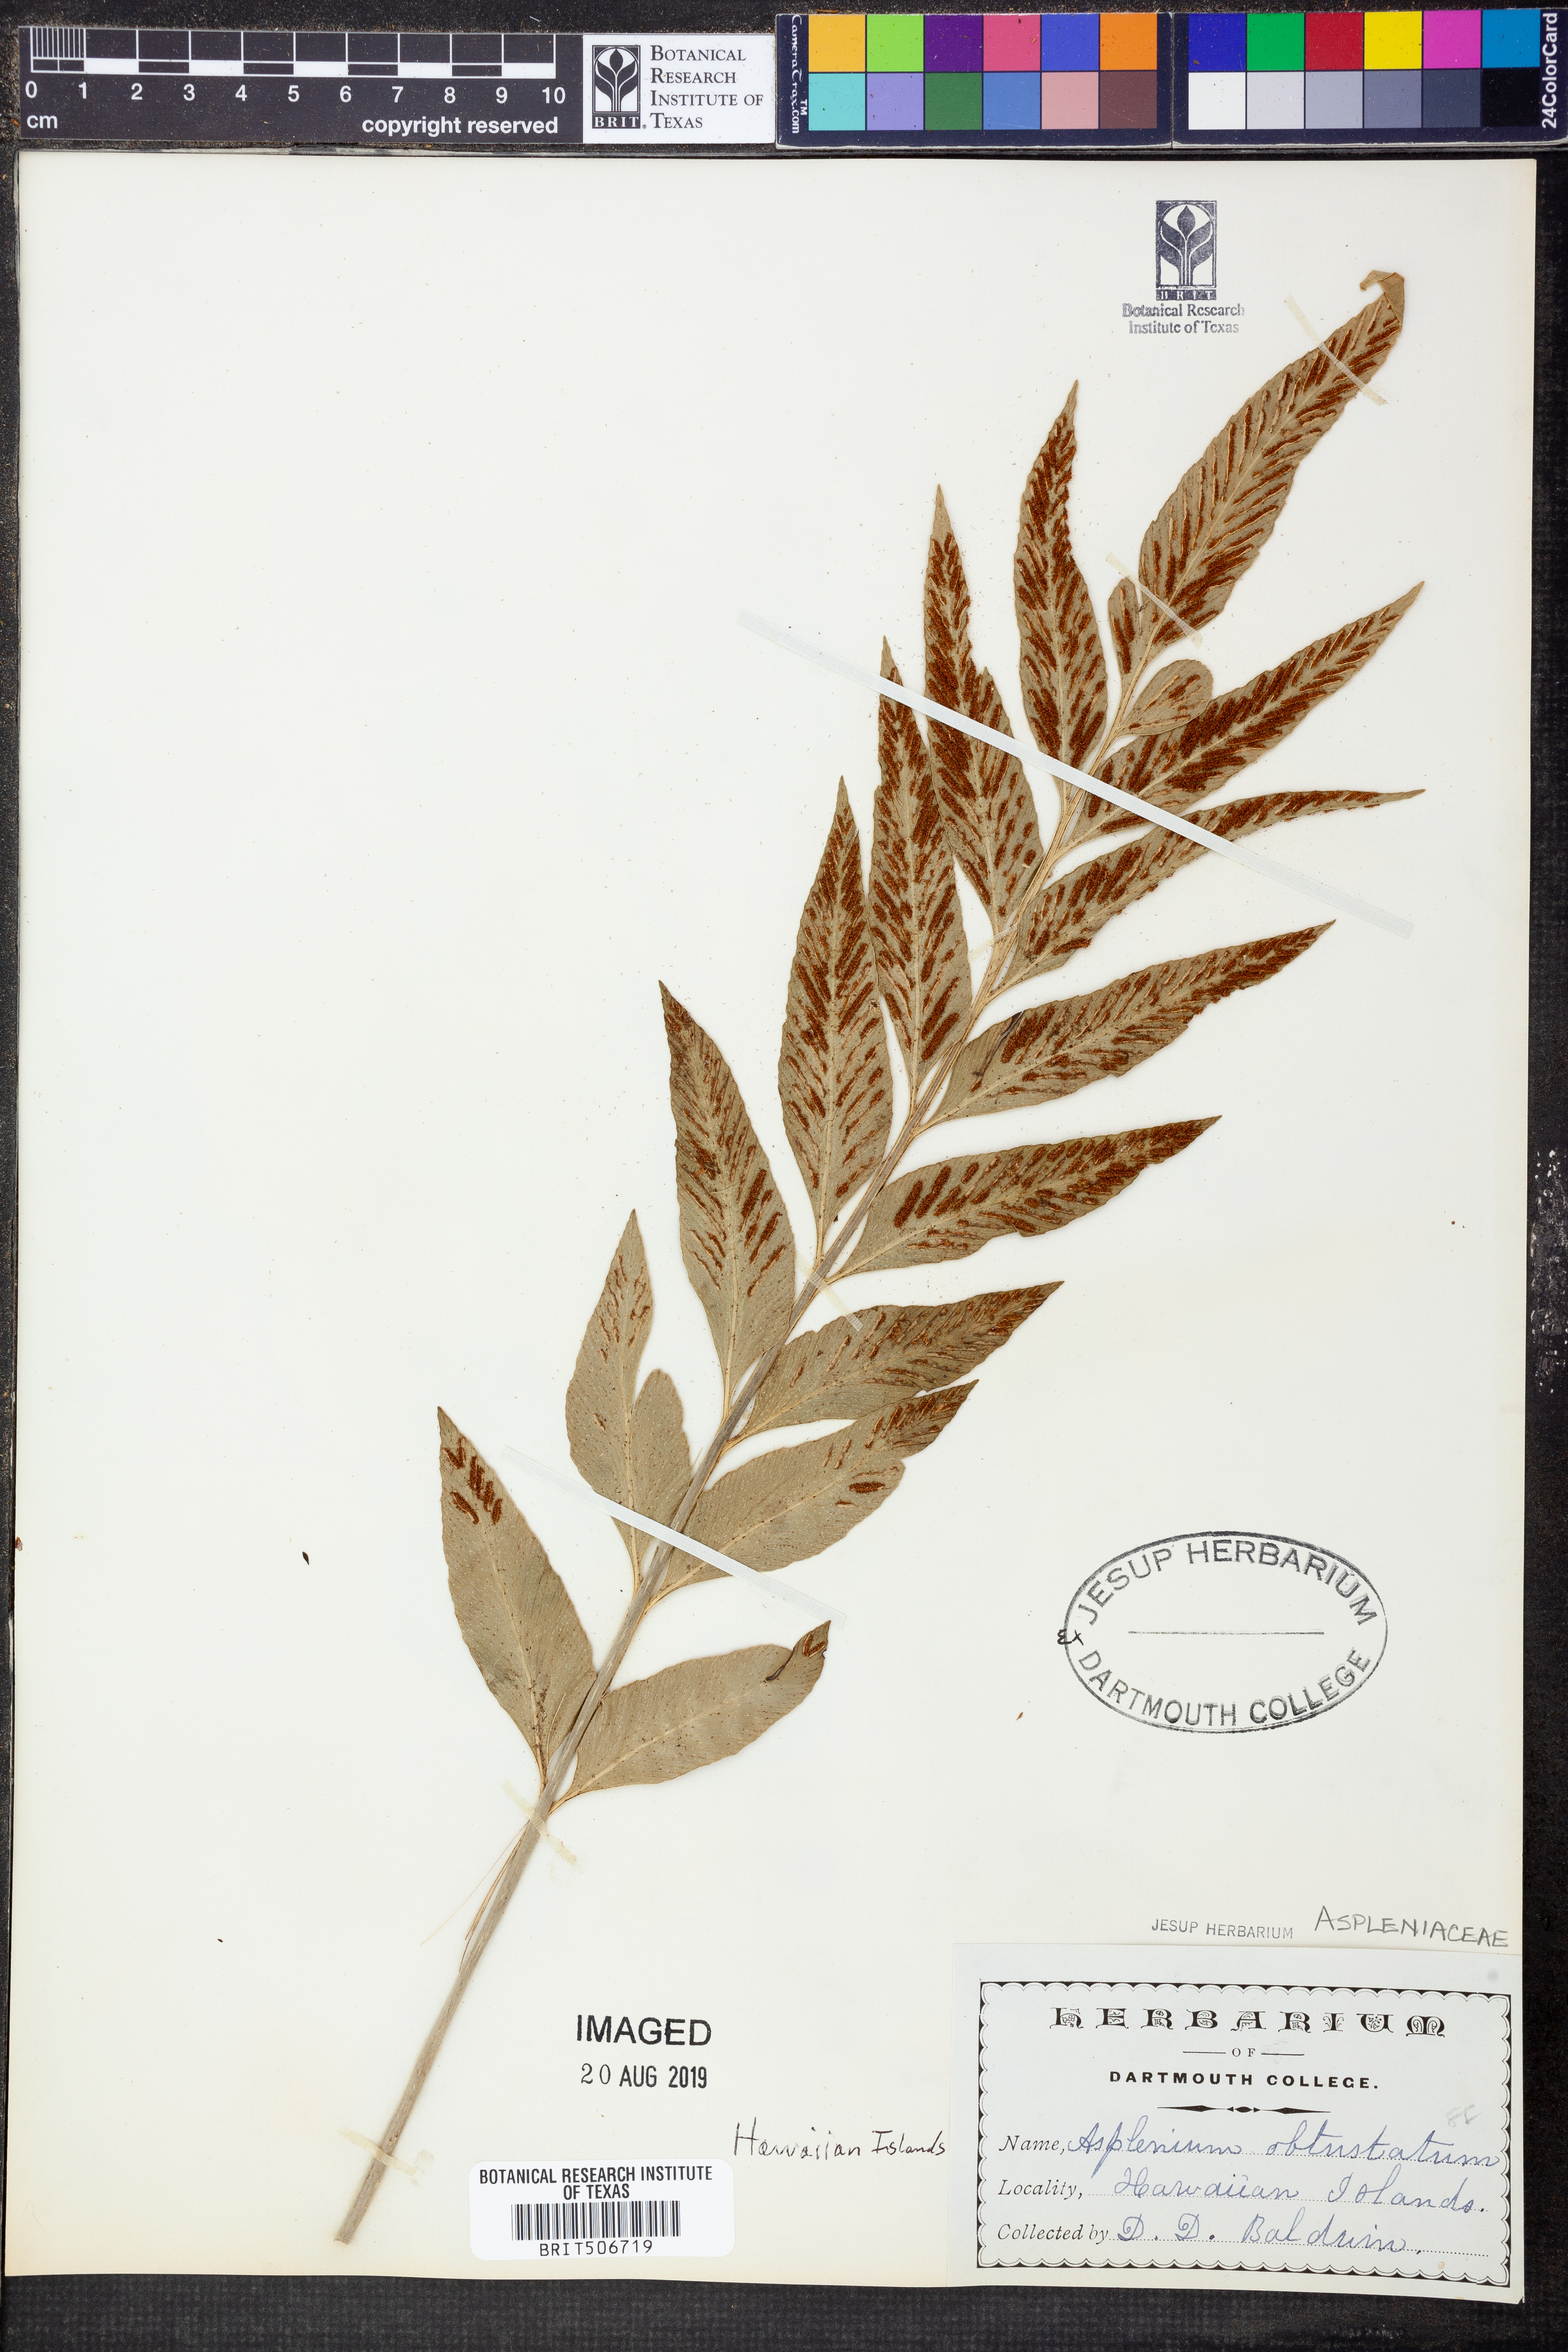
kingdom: Plantae
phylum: Tracheophyta
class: Polypodiopsida
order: Polypodiales
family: Aspleniaceae
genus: Asplenium
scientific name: Asplenium obtusatum
